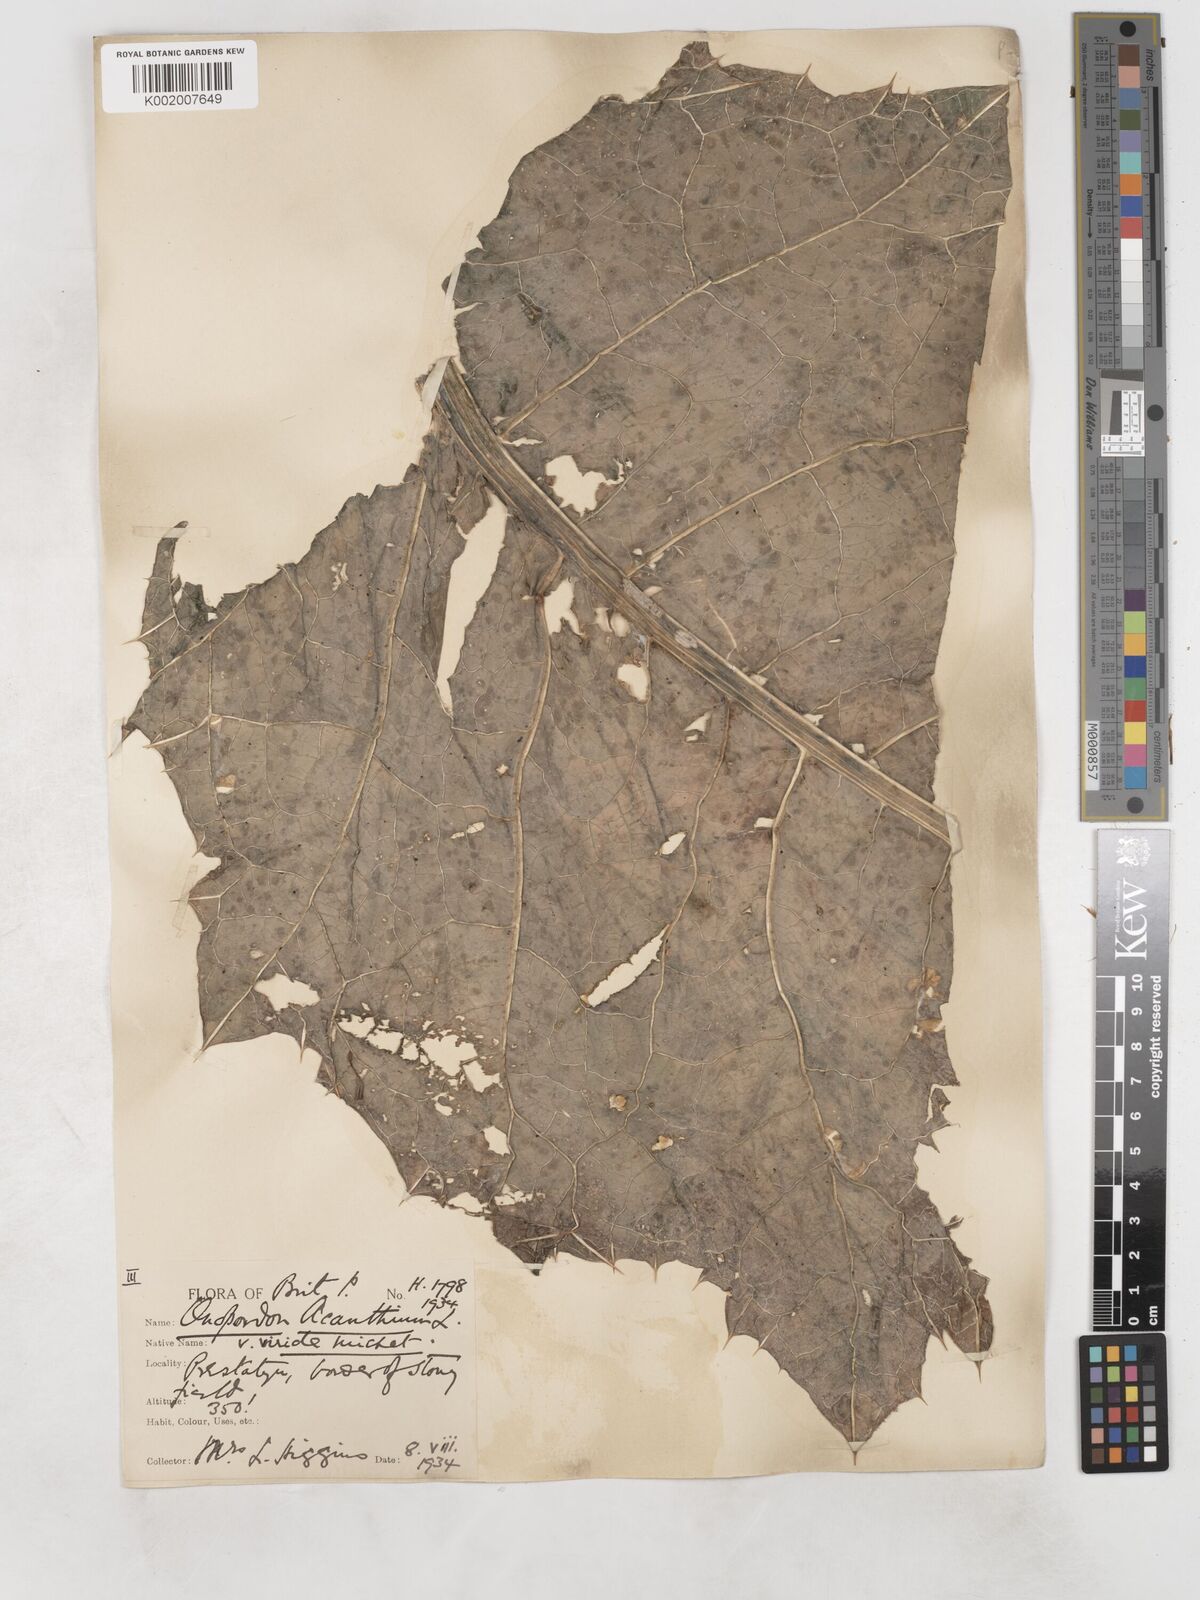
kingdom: Plantae
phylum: Tracheophyta
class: Magnoliopsida
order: Asterales
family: Asteraceae
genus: Onopordum
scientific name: Onopordum acanthium
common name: Scotch thistle
